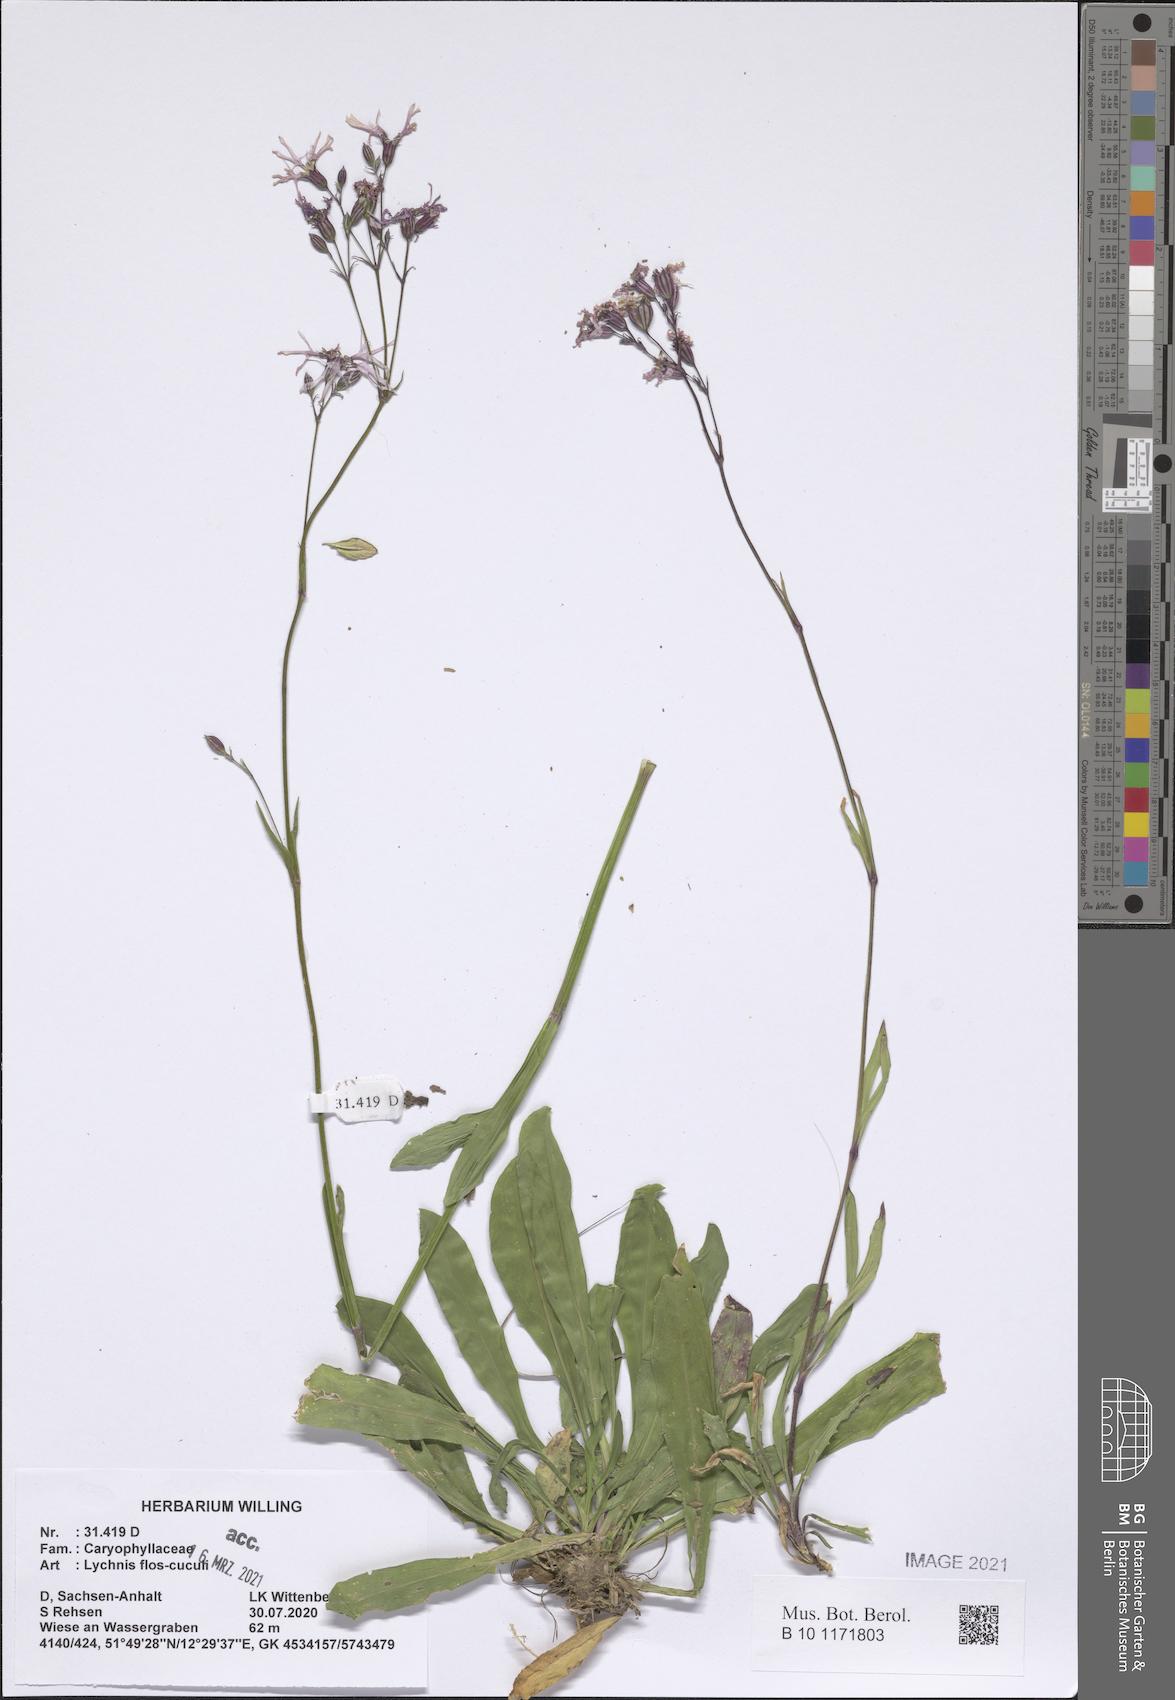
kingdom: Plantae
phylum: Tracheophyta
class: Magnoliopsida
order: Caryophyllales
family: Caryophyllaceae
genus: Silene
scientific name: Silene flos-cuculi
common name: Ragged-robin
